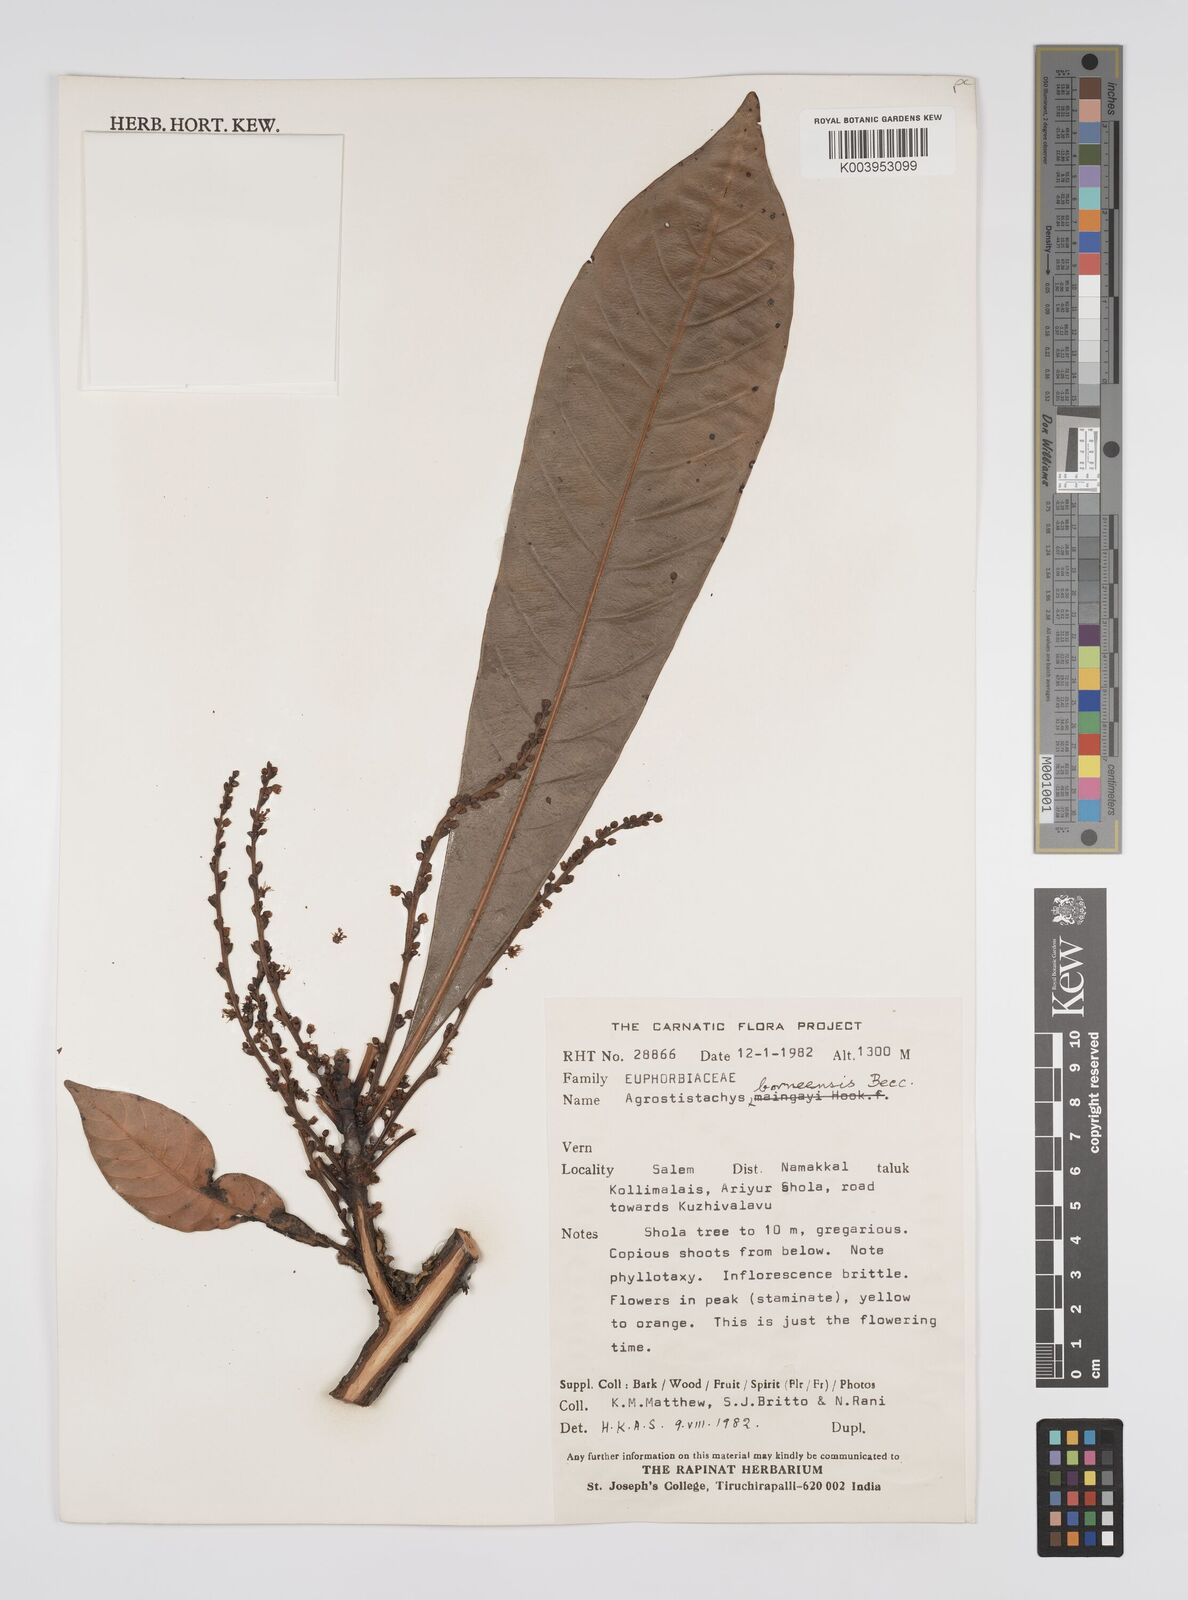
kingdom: Plantae
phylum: Tracheophyta
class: Magnoliopsida
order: Malpighiales
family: Euphorbiaceae
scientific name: Euphorbiaceae
